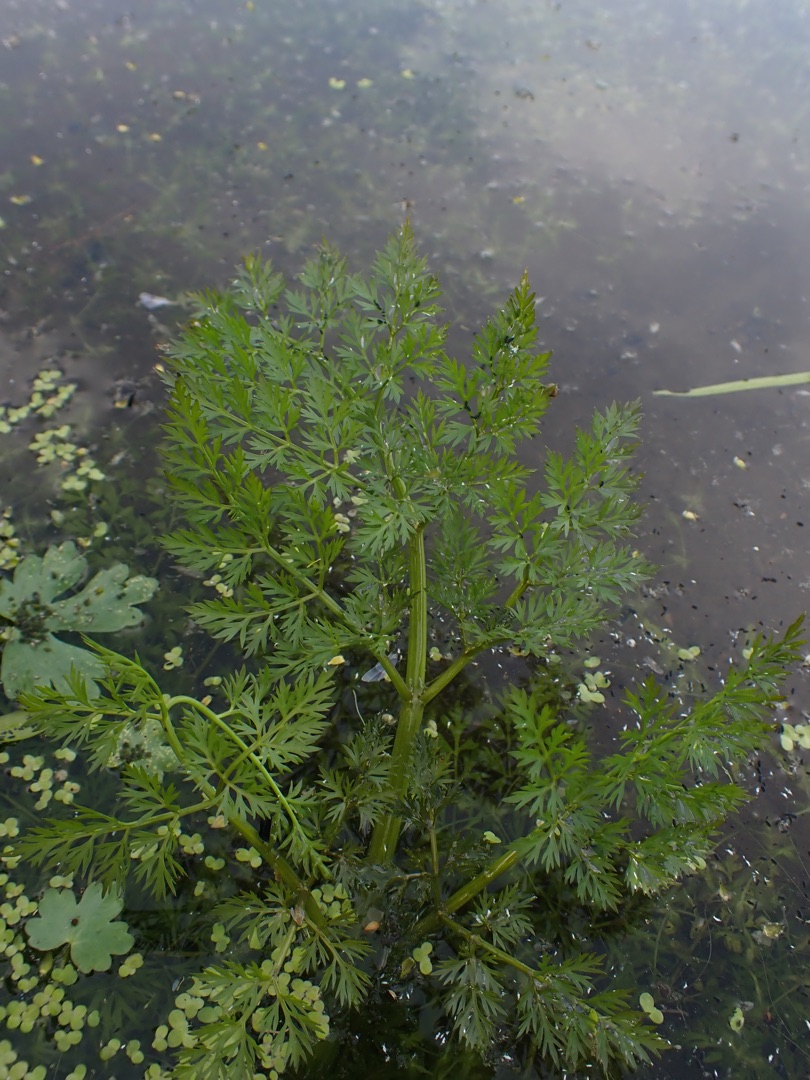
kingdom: Plantae
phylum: Tracheophyta
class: Magnoliopsida
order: Apiales
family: Apiaceae
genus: Oenanthe
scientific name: Oenanthe aquatica
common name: Billebo-klaseskærm
